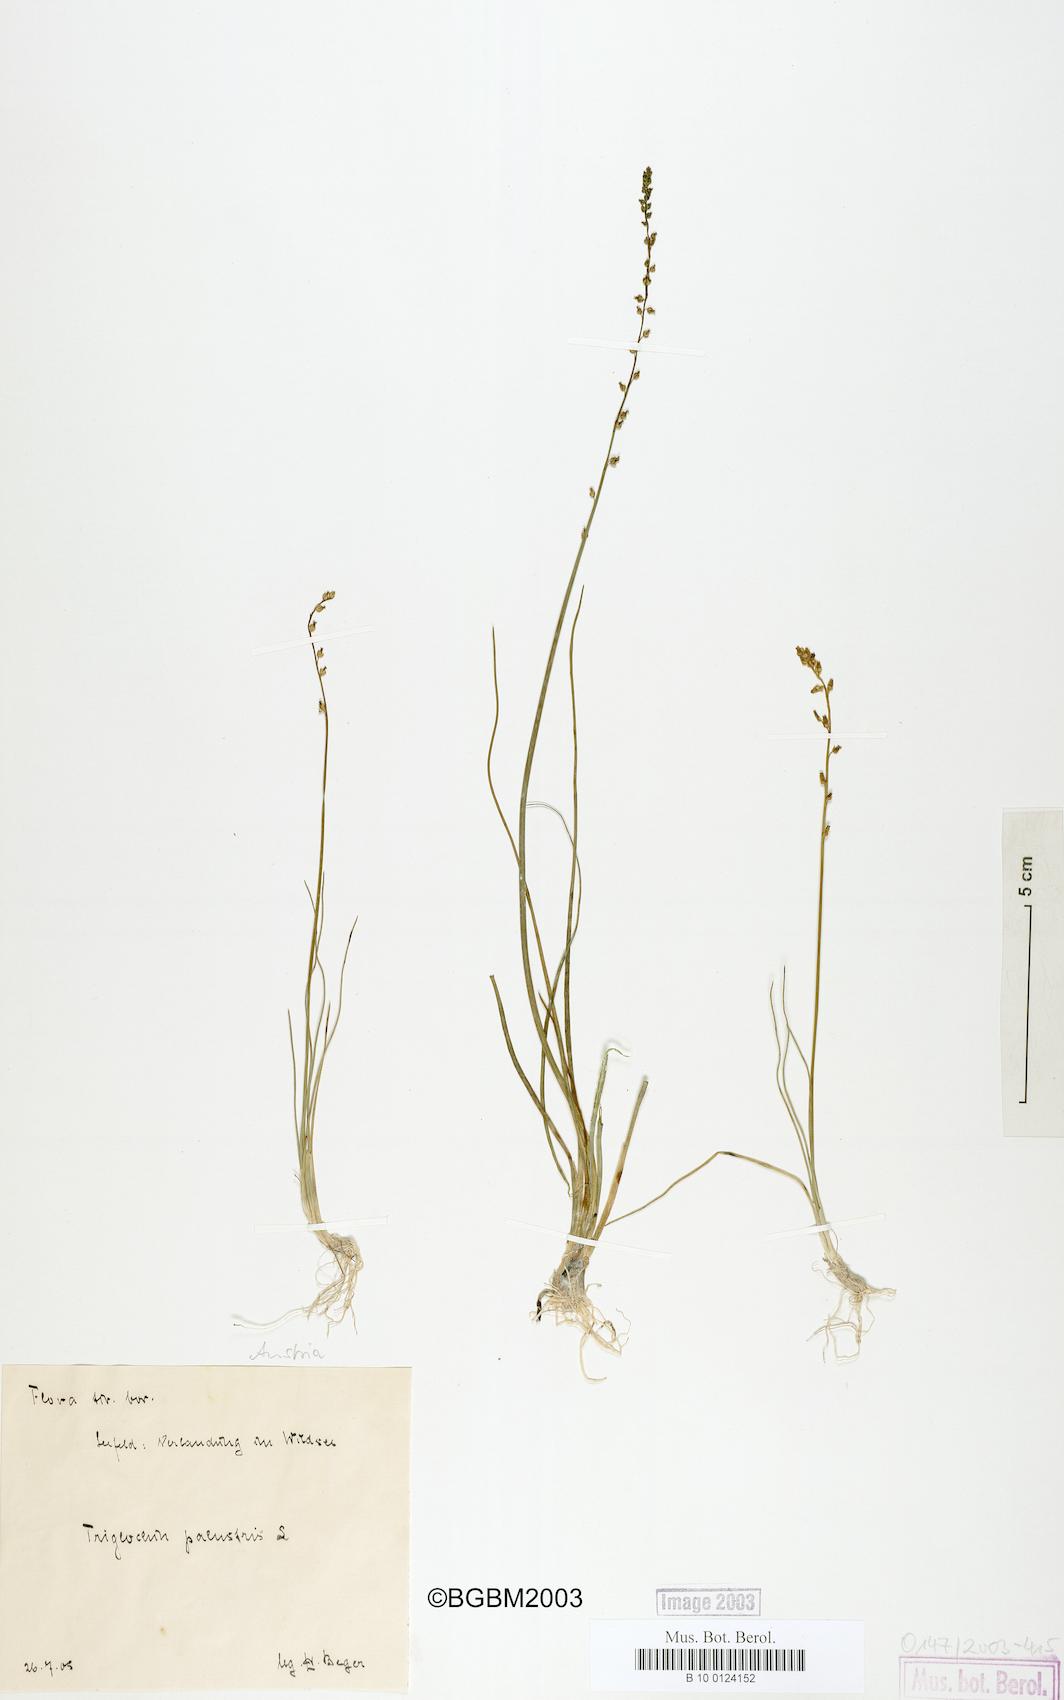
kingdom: Plantae
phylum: Tracheophyta
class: Liliopsida
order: Alismatales
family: Juncaginaceae
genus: Triglochin
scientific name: Triglochin palustris
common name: Marsh arrowgrass
